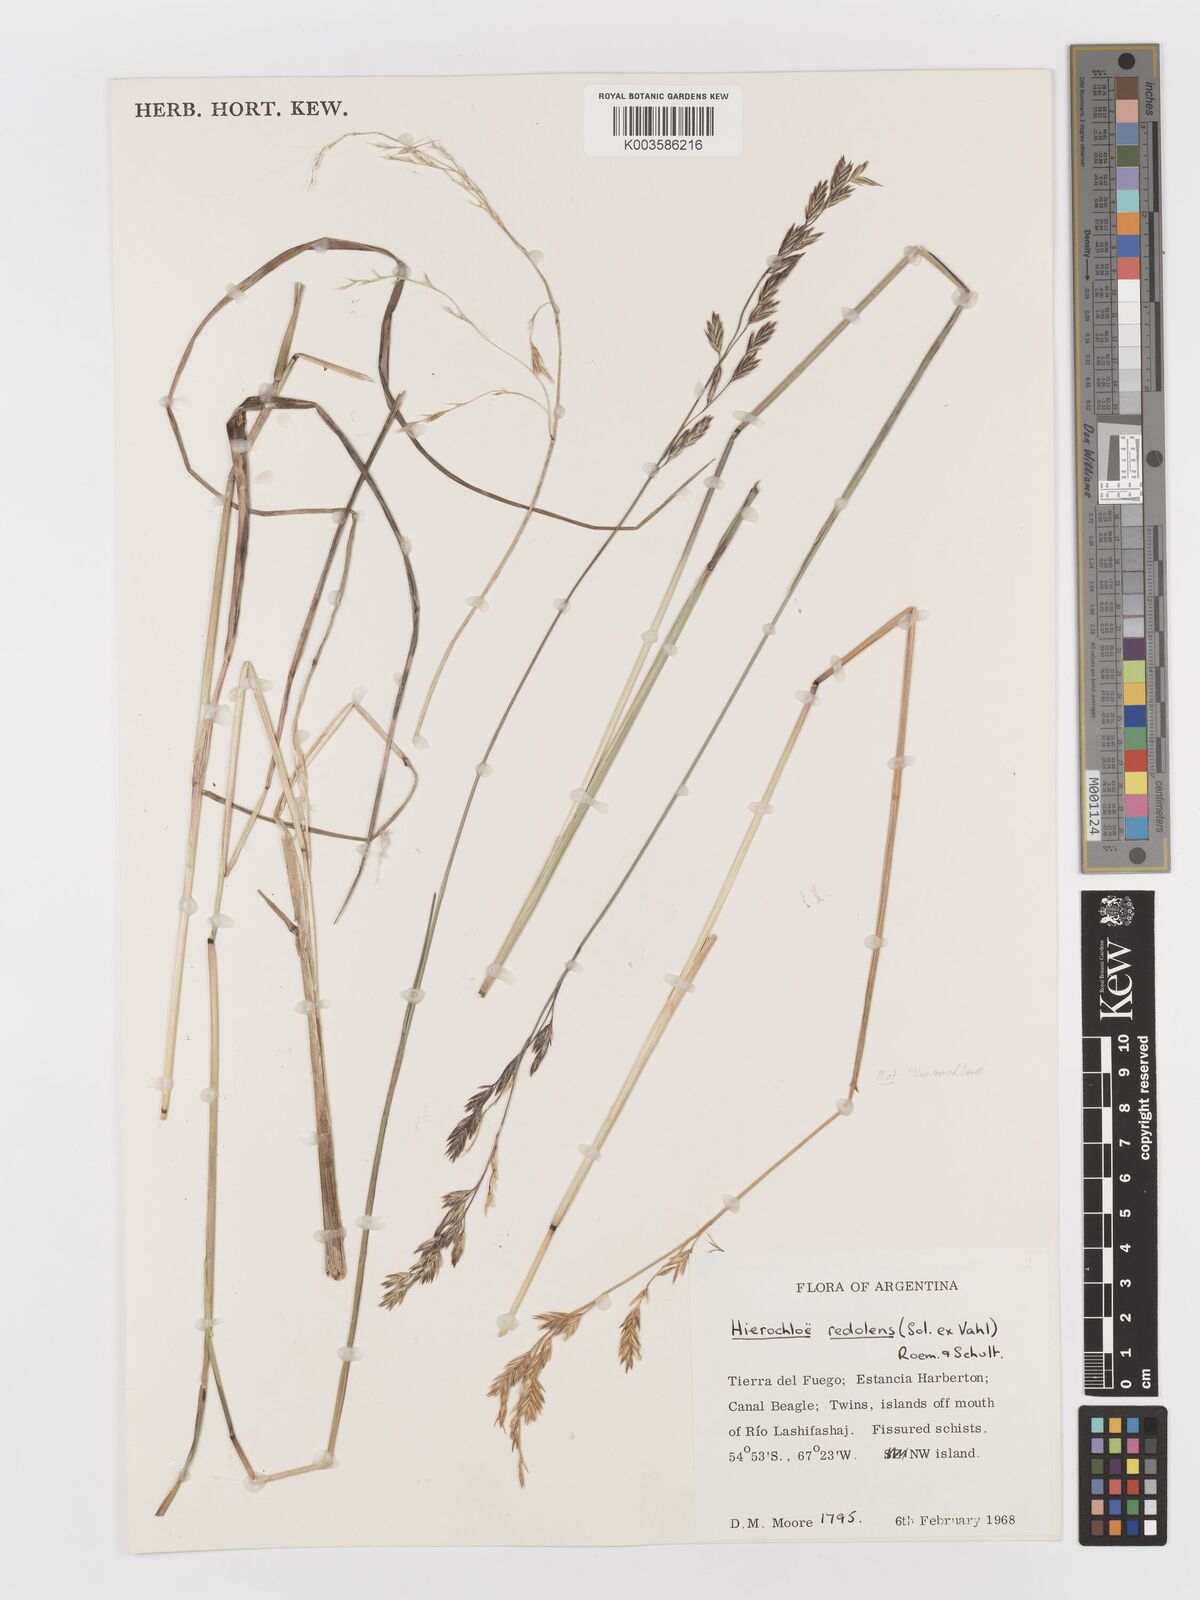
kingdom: Plantae
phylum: Tracheophyta
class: Liliopsida
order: Poales
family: Poaceae
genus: Anthoxanthum
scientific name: Anthoxanthum redolens
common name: Sweet holy grass
